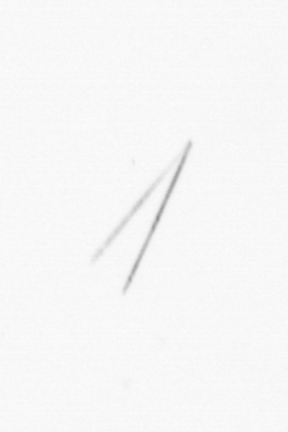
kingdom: Chromista
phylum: Ochrophyta
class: Bacillariophyceae
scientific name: Bacillariophyceae
